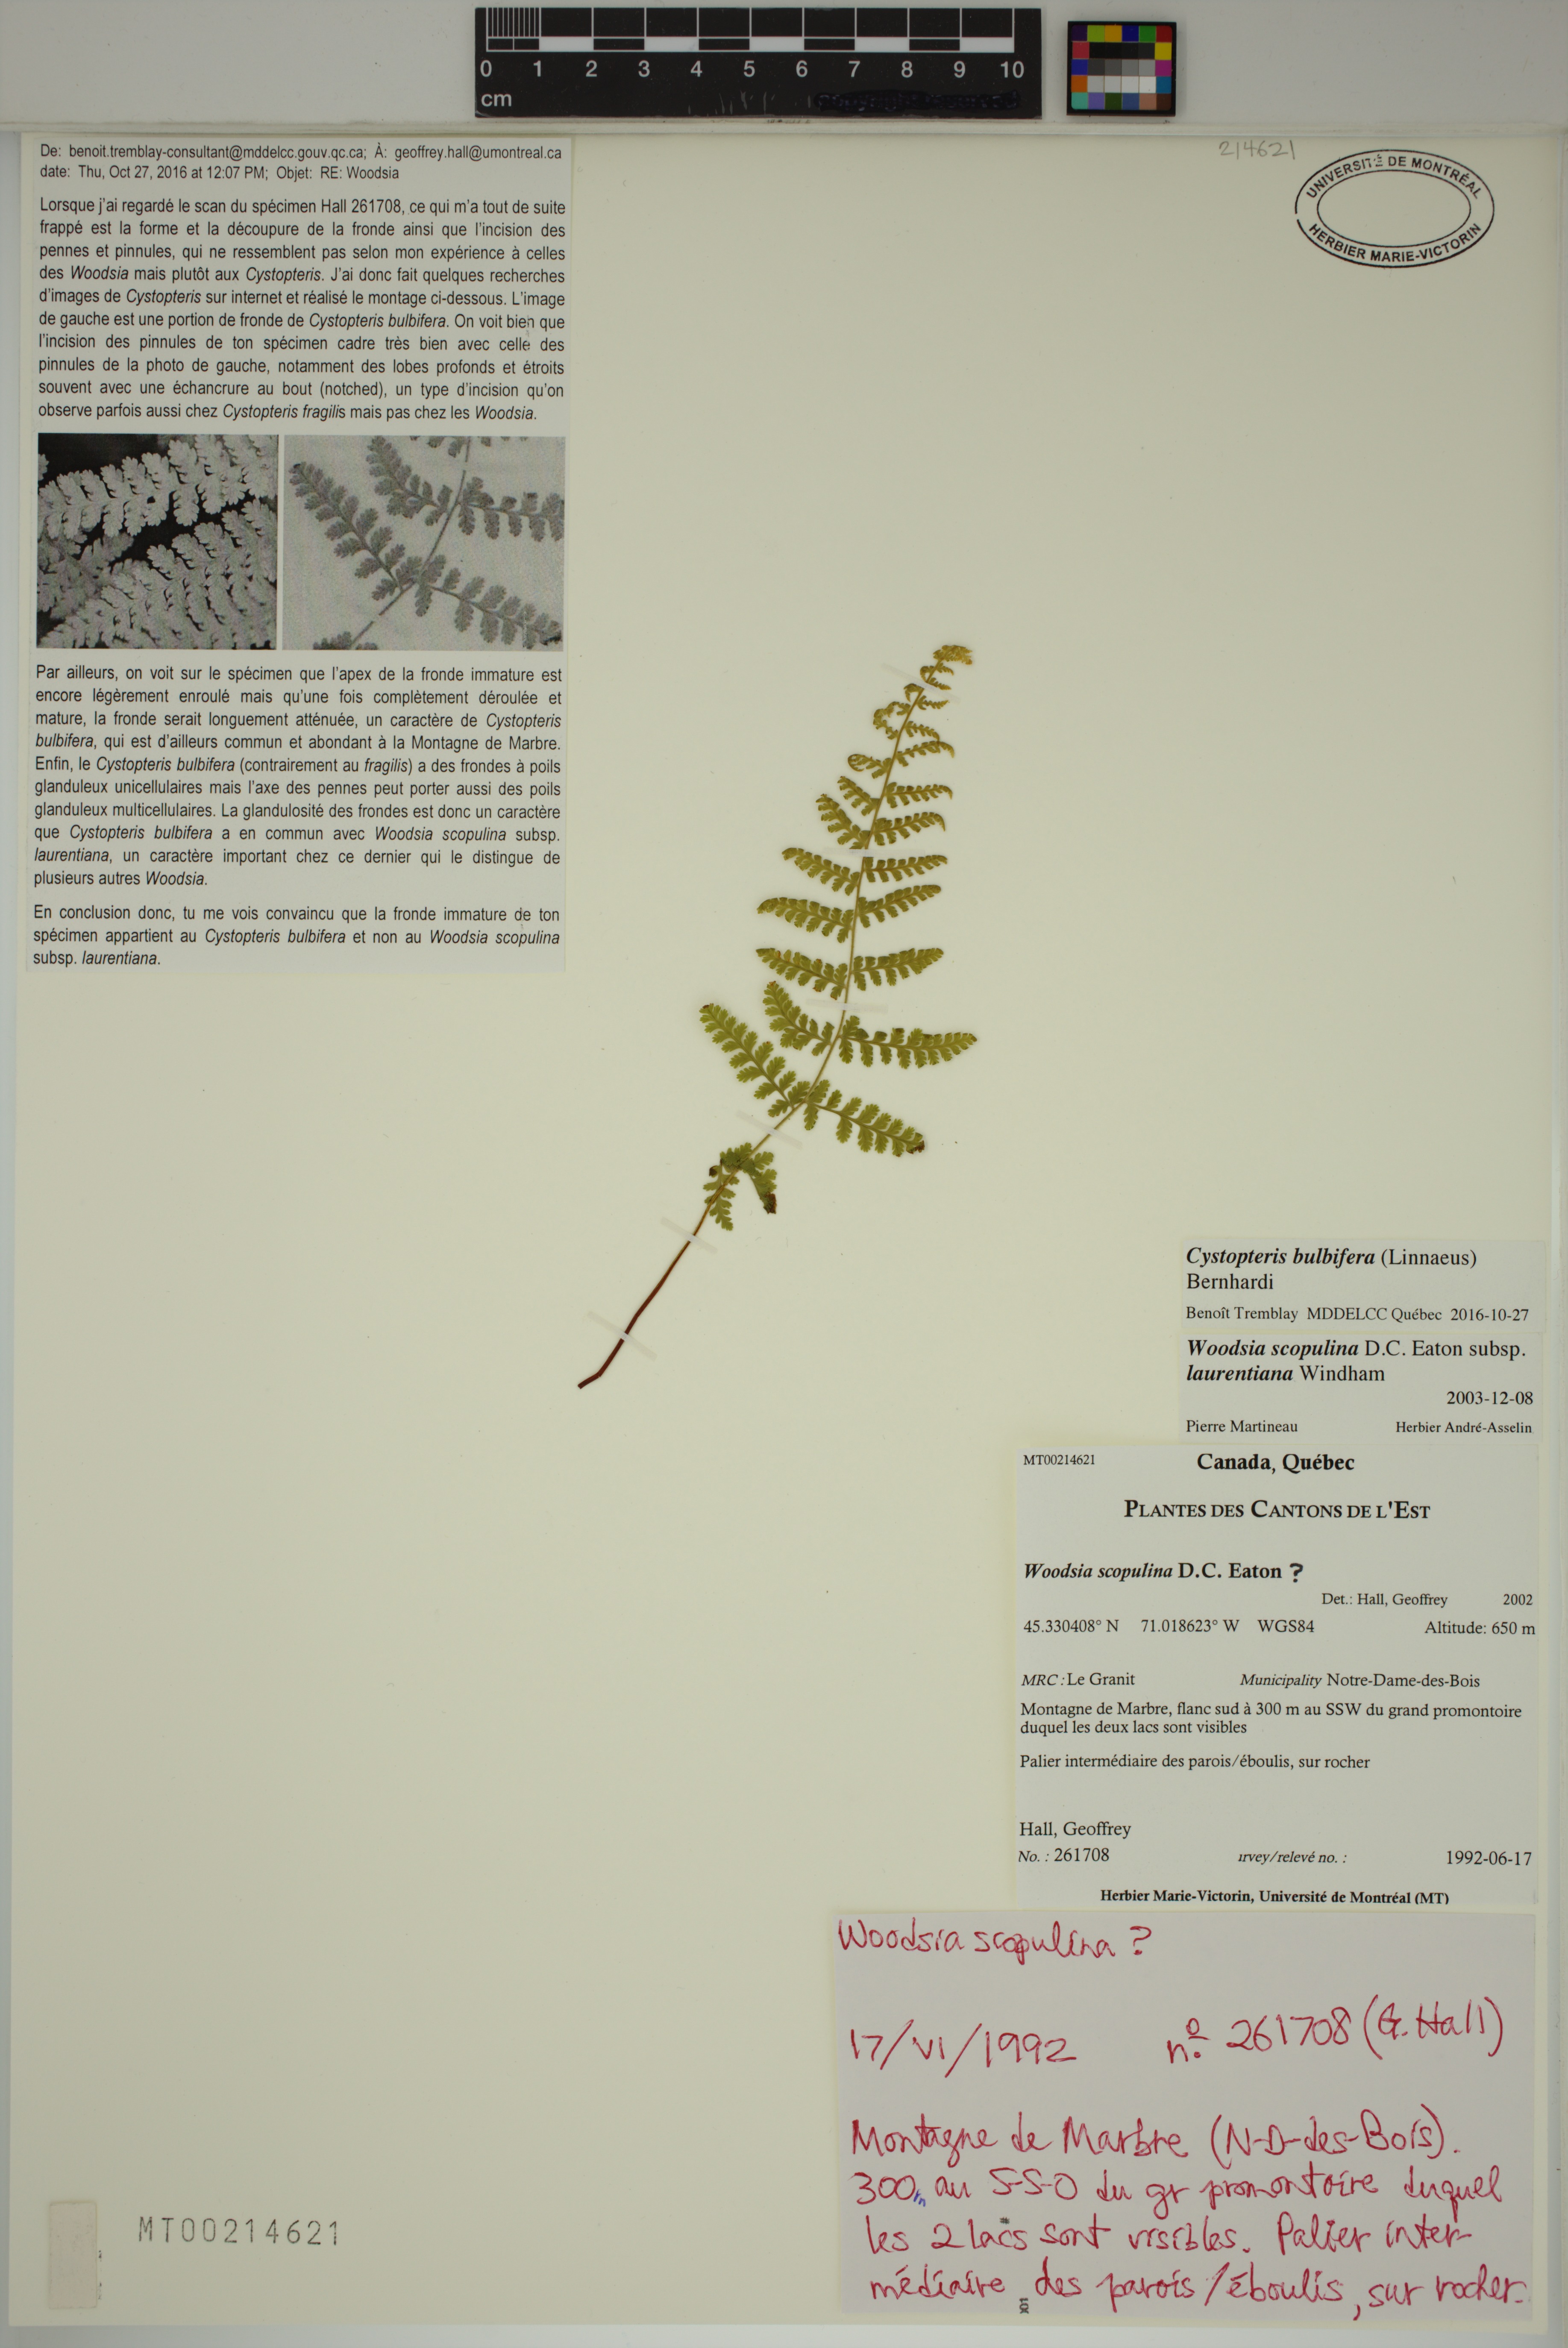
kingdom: Plantae
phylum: Tracheophyta
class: Polypodiopsida
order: Polypodiales
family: Cystopteridaceae
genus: Cystopteris
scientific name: Cystopteris bulbifera
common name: Bulblet bladder fern
